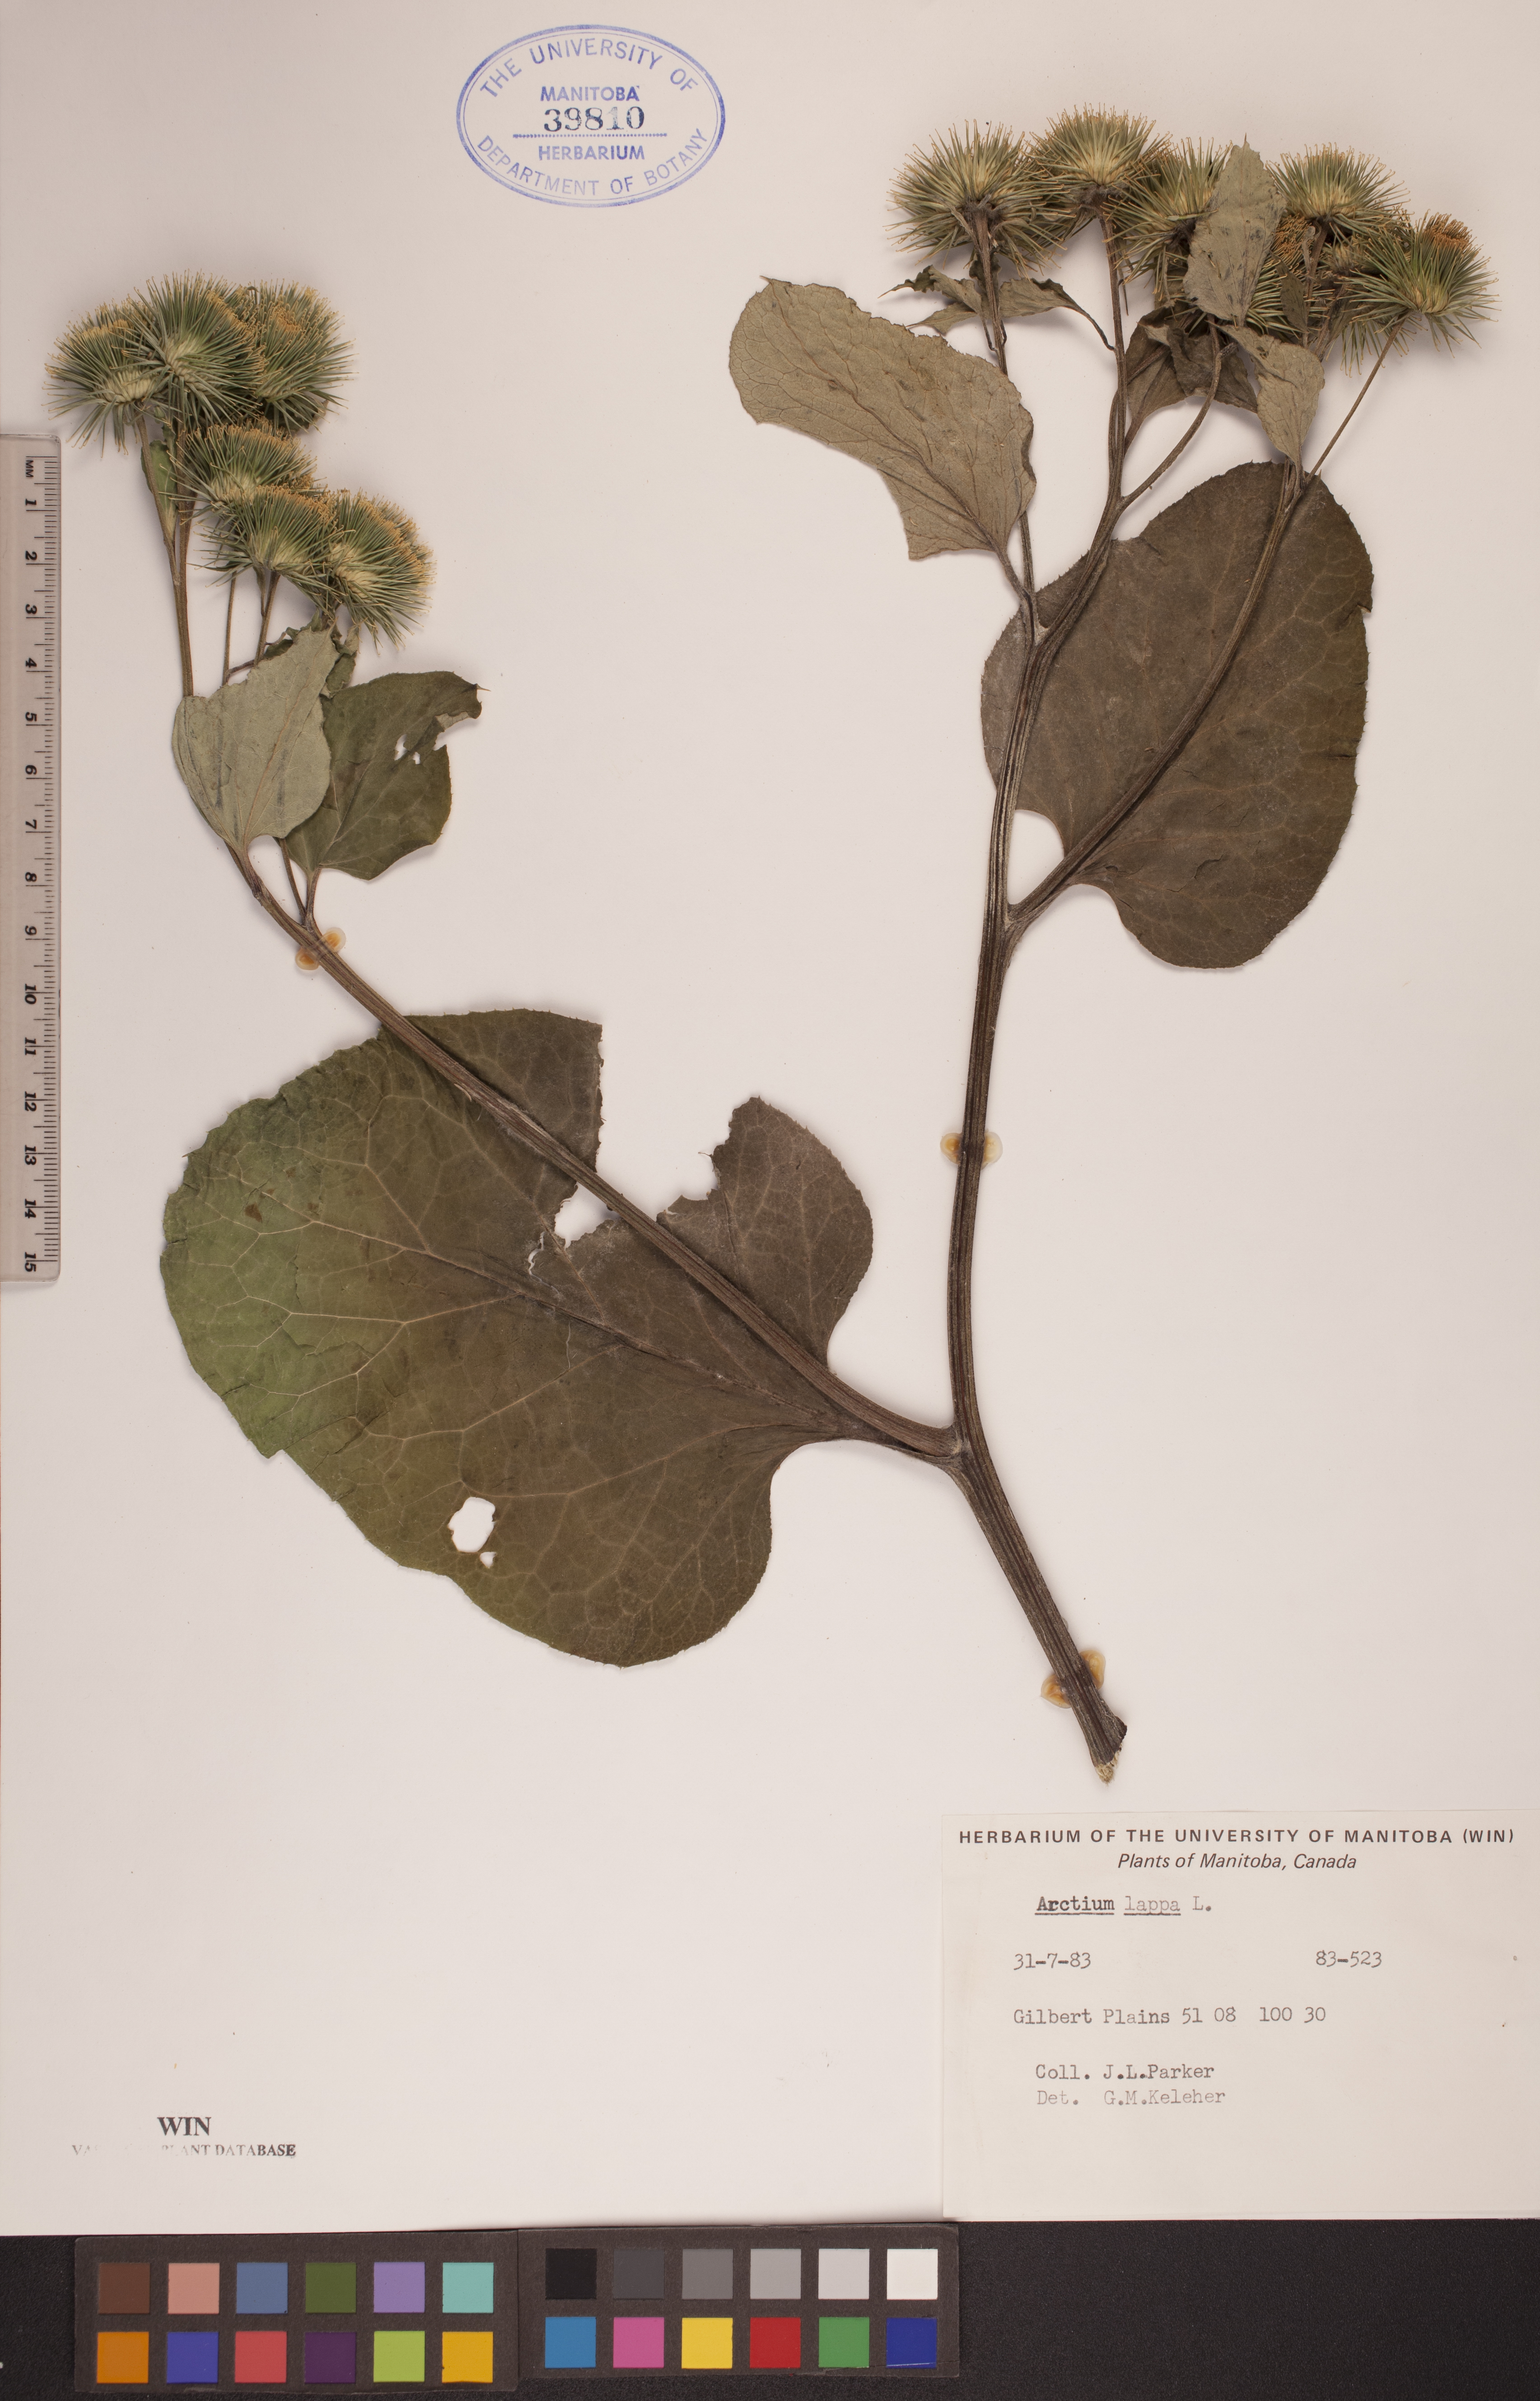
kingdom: Plantae
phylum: Tracheophyta
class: Magnoliopsida
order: Asterales
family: Asteraceae
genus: Arctium
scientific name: Arctium lappa
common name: Greater burdock
